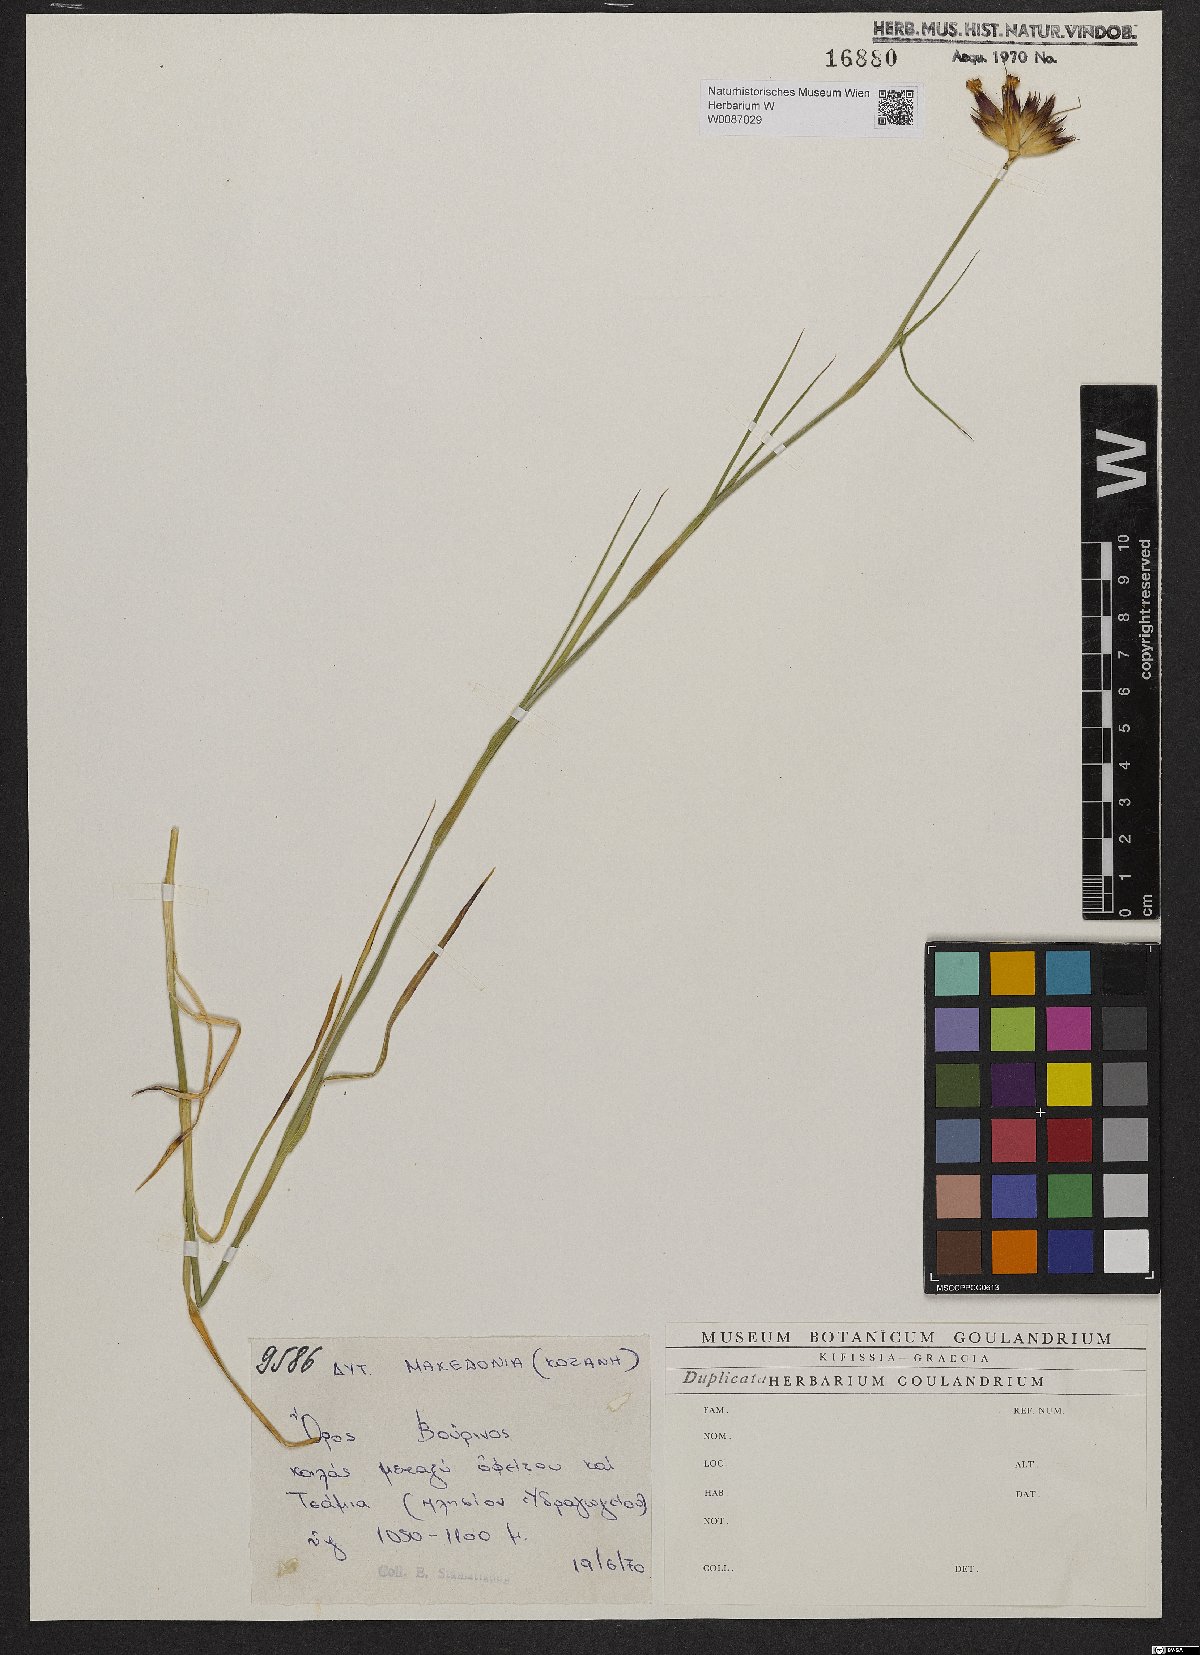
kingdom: Plantae
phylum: Tracheophyta
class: Magnoliopsida
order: Caryophyllales
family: Caryophyllaceae
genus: Dianthus
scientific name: Dianthus cruentus
